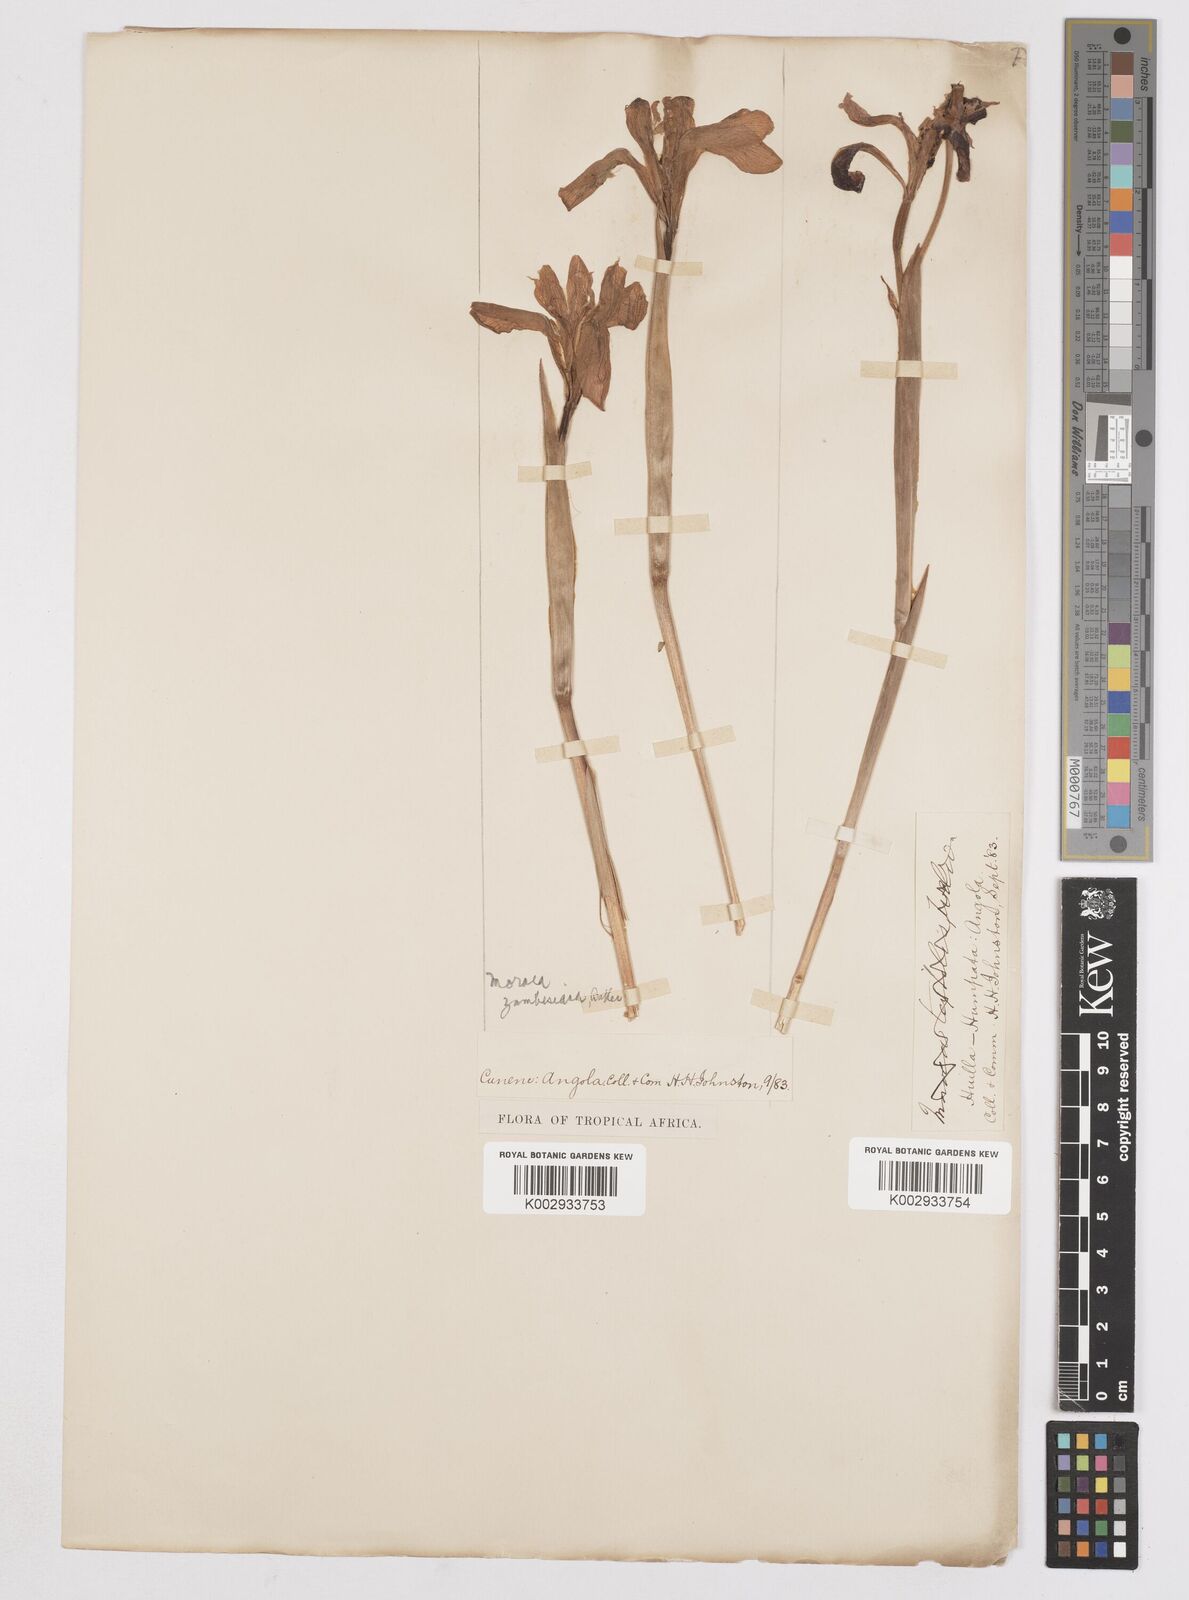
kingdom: Plantae
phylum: Tracheophyta
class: Liliopsida
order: Asparagales
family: Iridaceae
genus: Moraea
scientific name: Moraea schimperi
